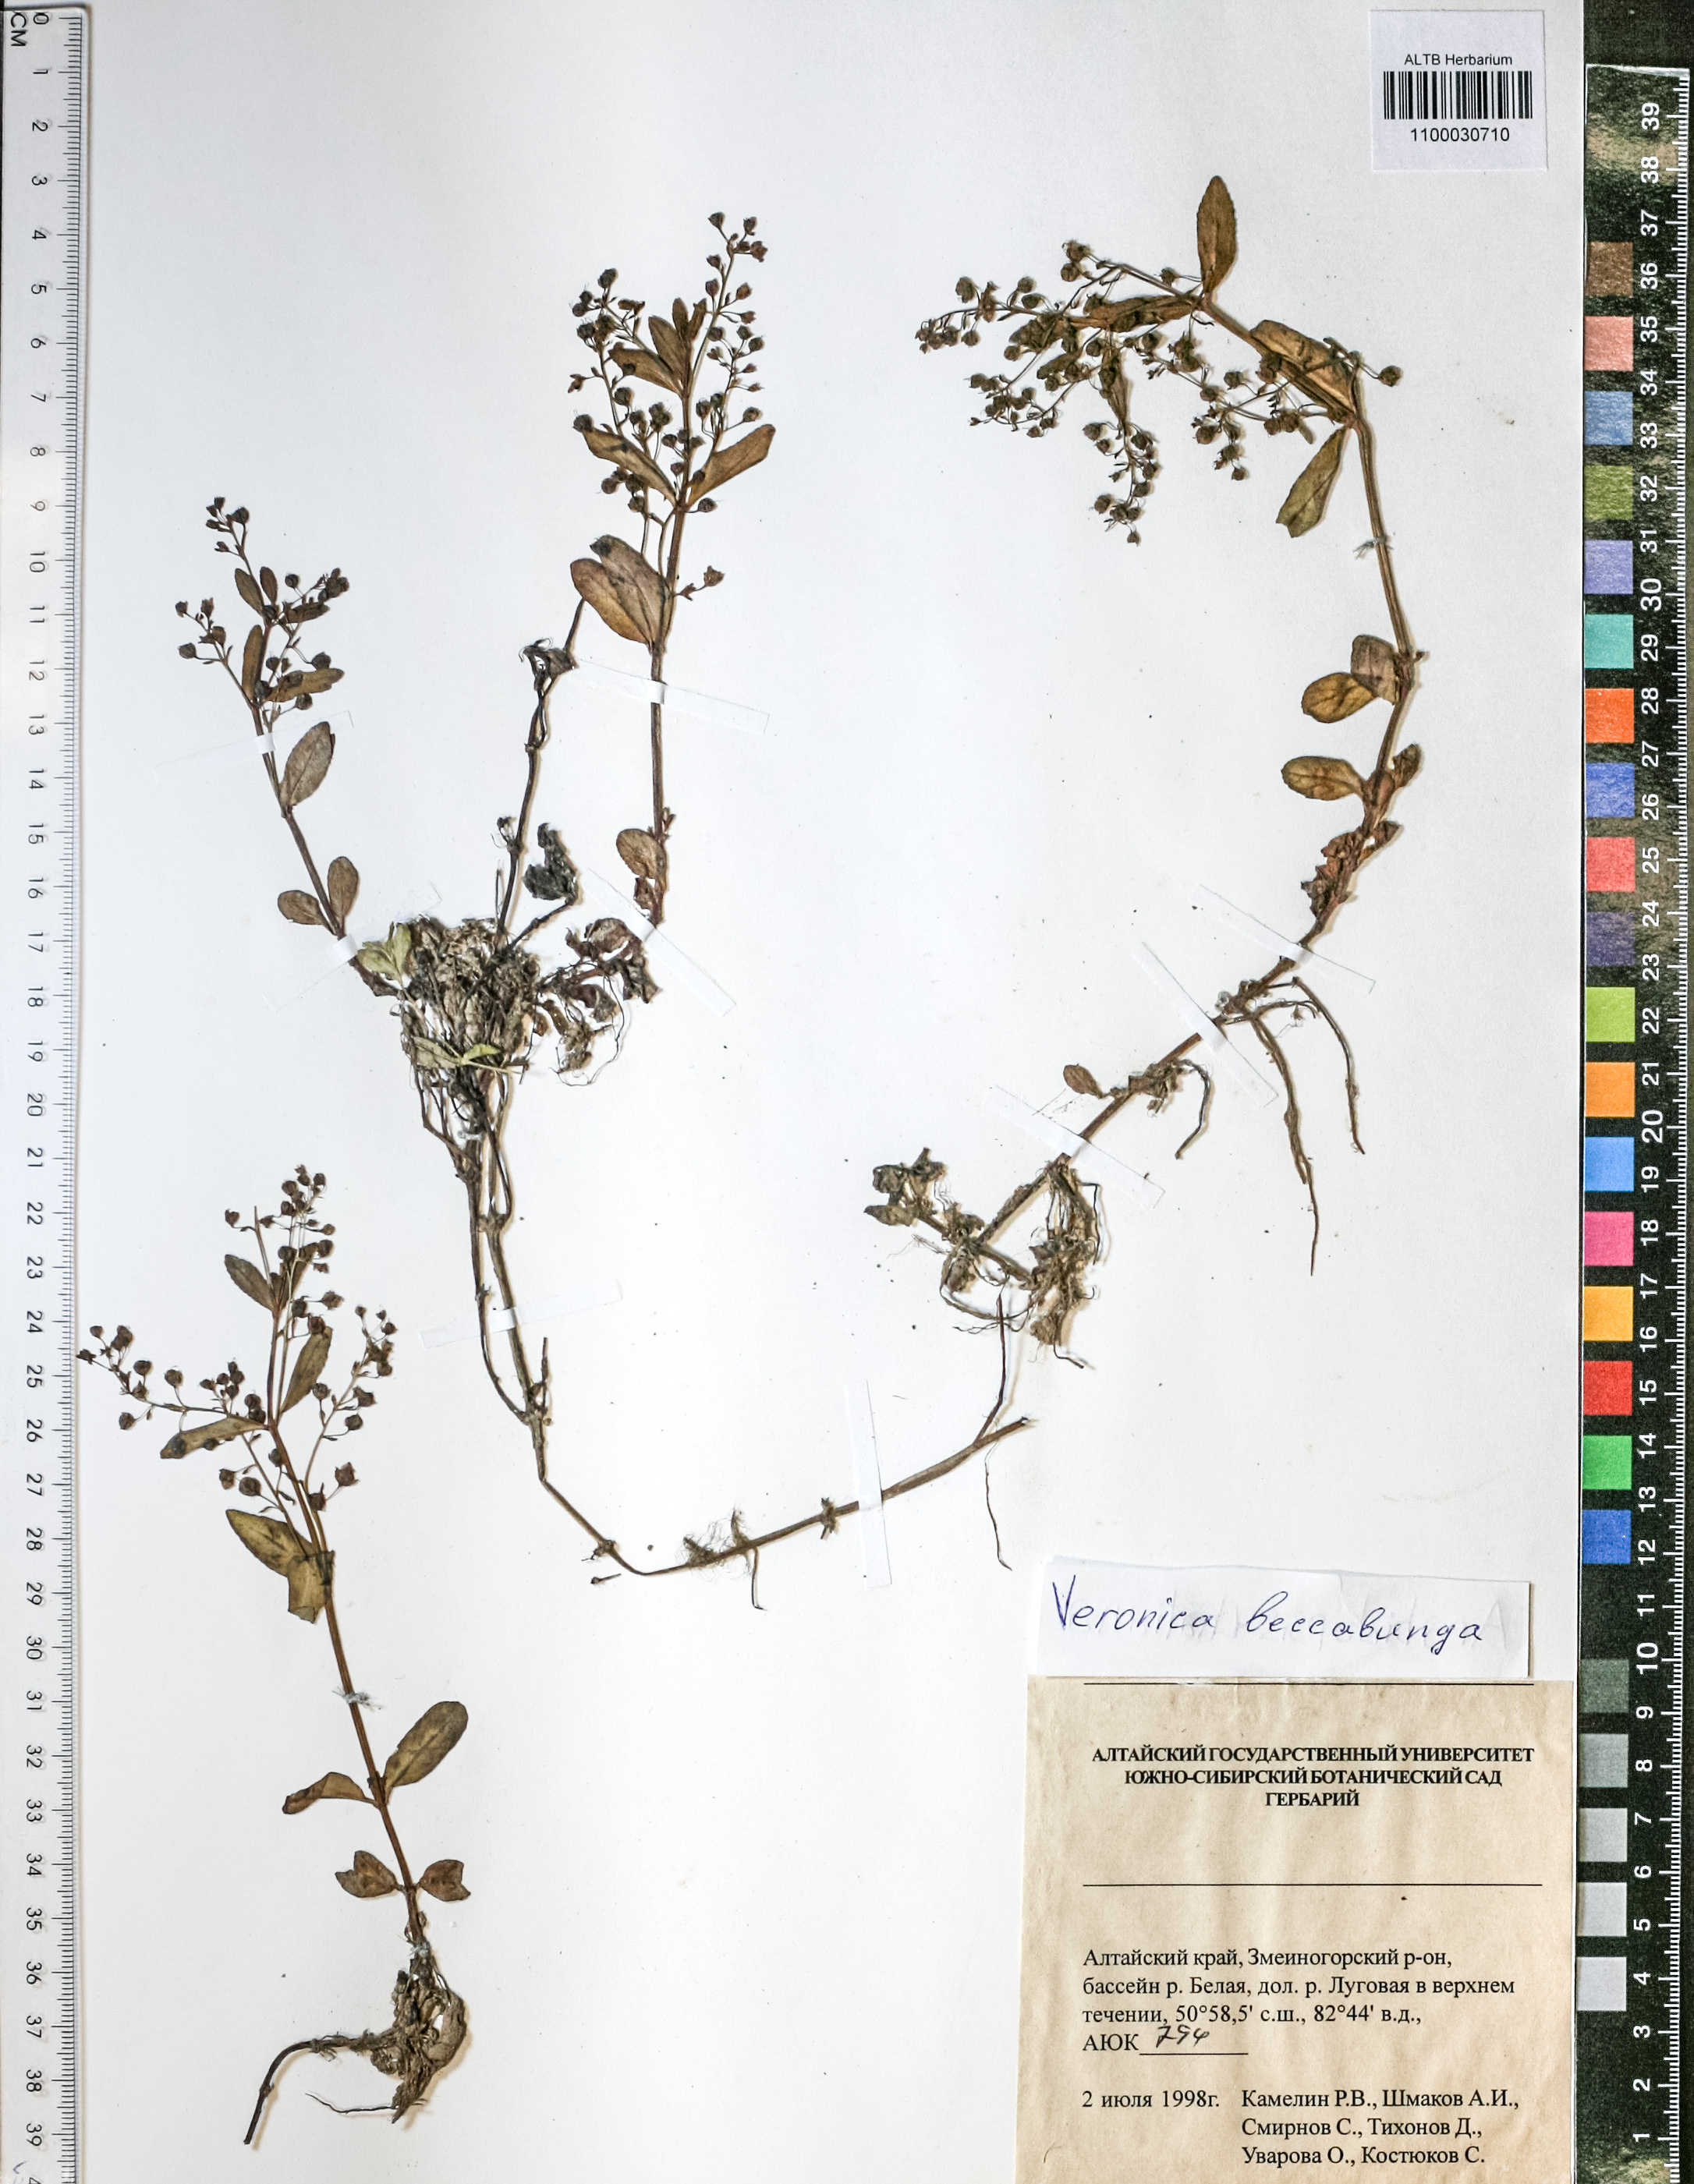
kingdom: Plantae
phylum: Tracheophyta
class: Magnoliopsida
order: Lamiales
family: Plantaginaceae
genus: Veronica
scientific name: Veronica beccabunga
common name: Brooklime
